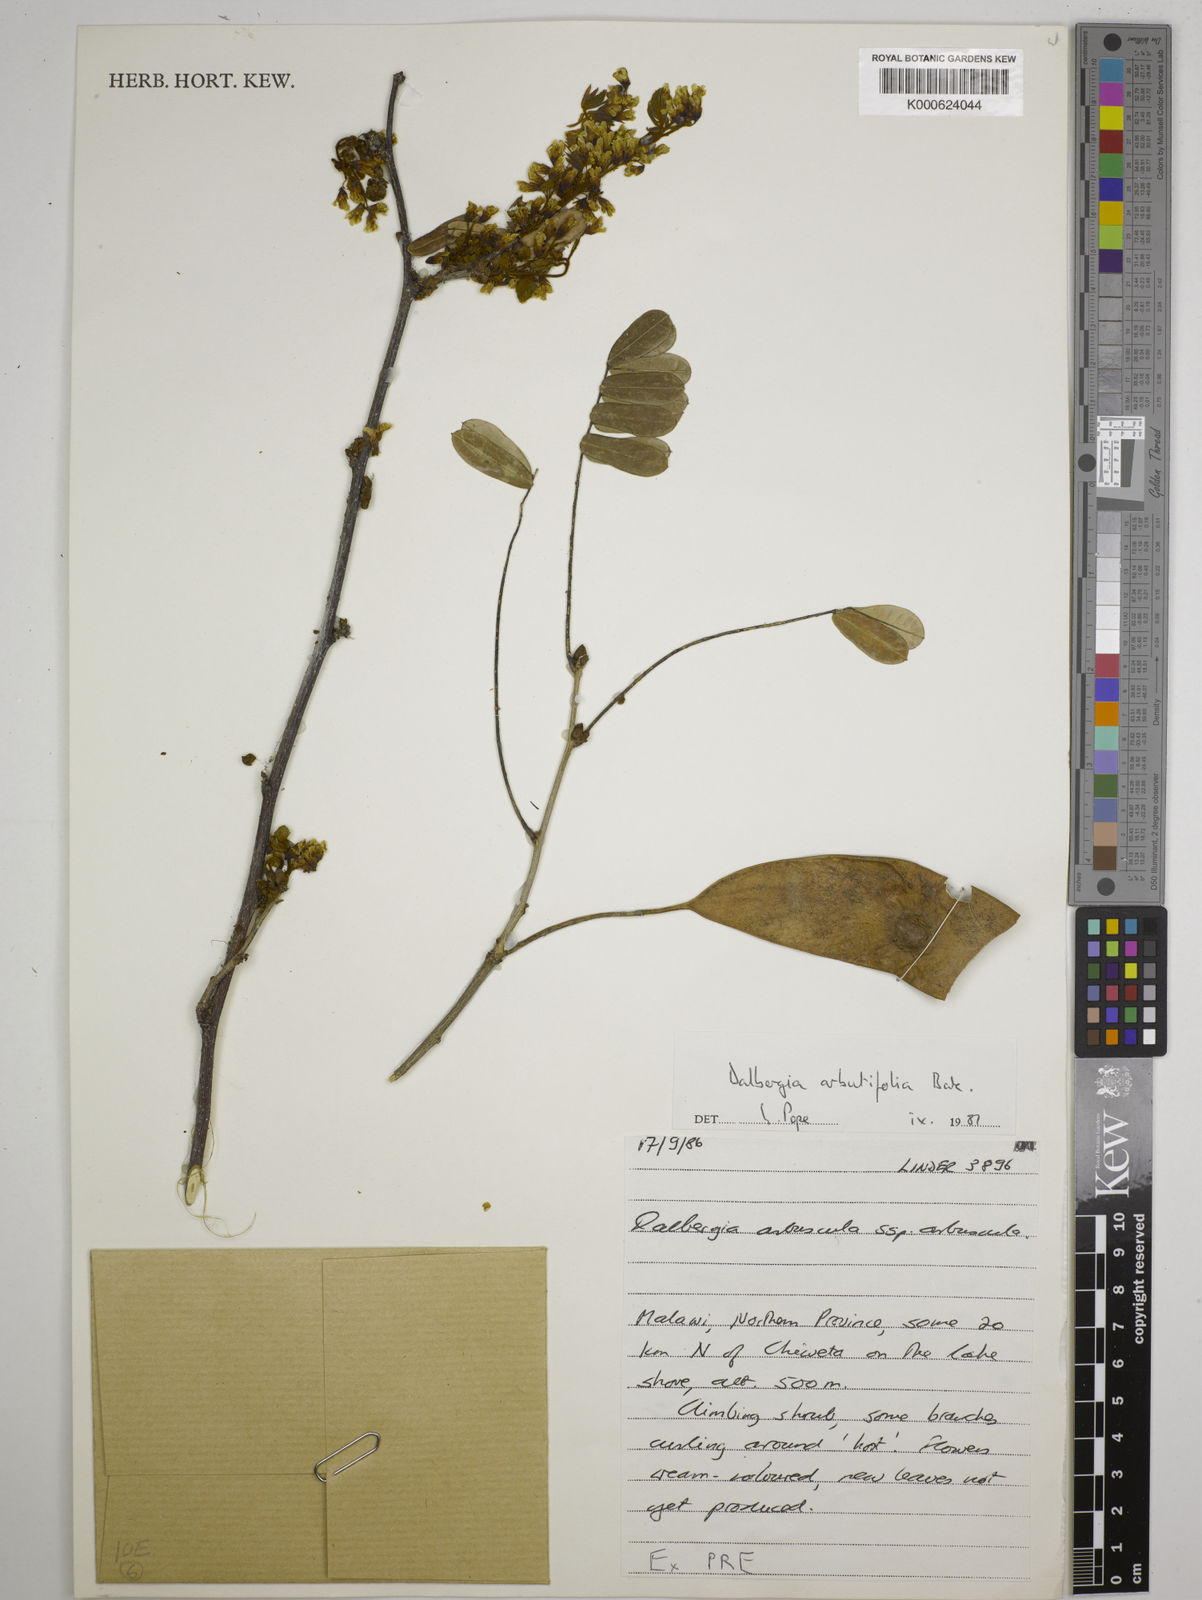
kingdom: Plantae
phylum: Tracheophyta
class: Magnoliopsida
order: Fabales
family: Fabaceae
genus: Dalbergia
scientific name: Dalbergia arbutifolia
